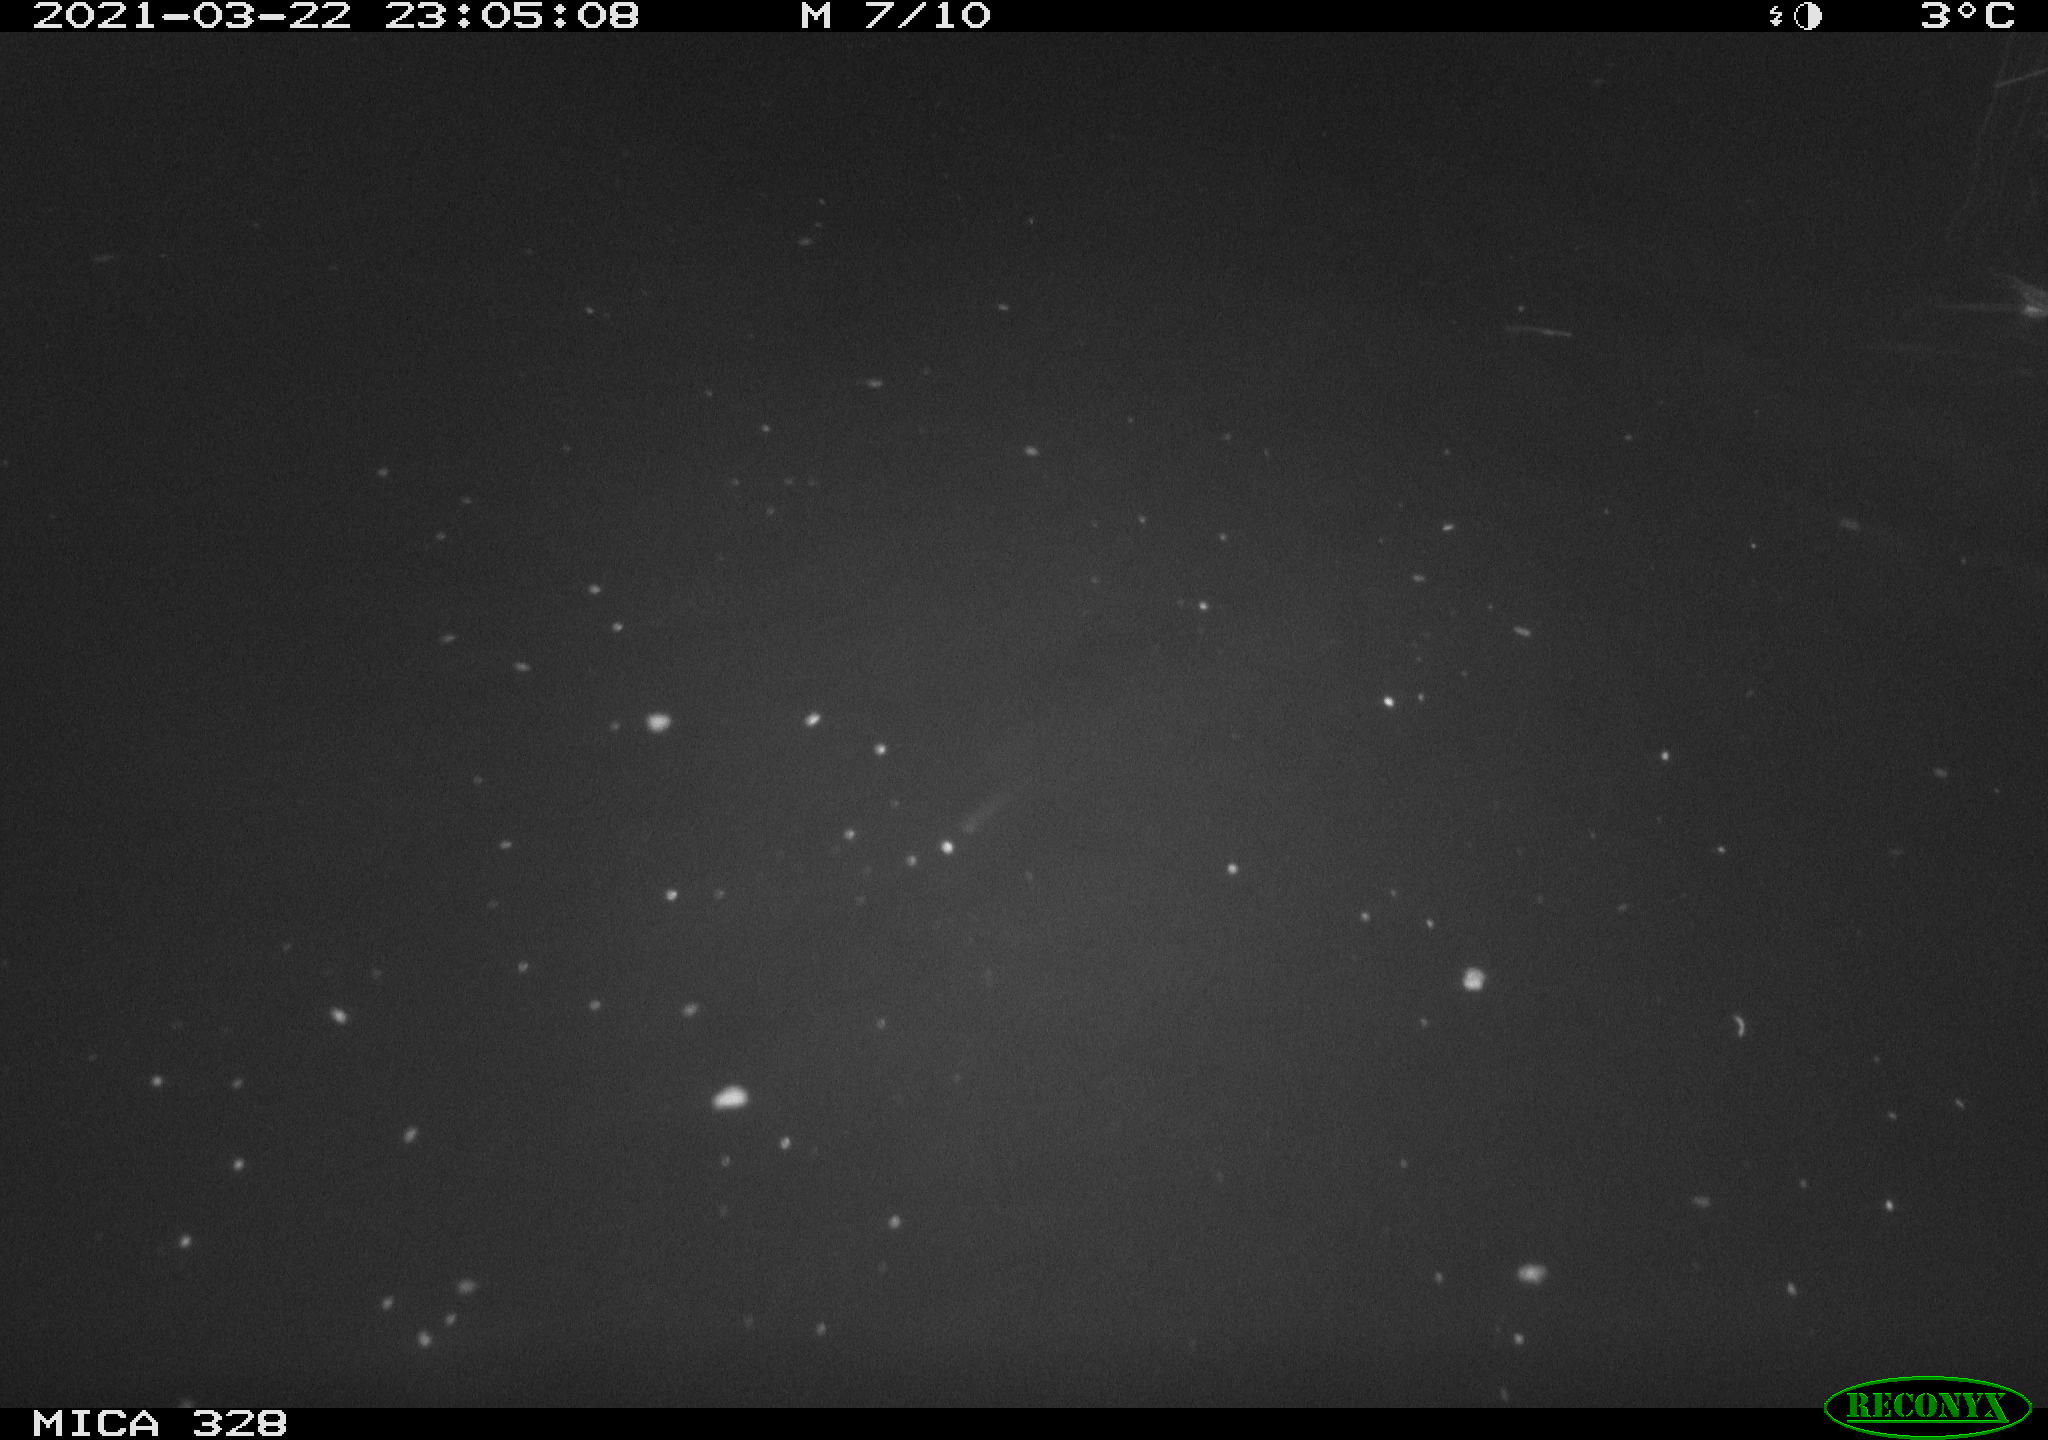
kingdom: Animalia
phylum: Chordata
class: Mammalia
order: Rodentia
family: Cricetidae
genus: Ondatra
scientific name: Ondatra zibethicus
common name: Muskrat
